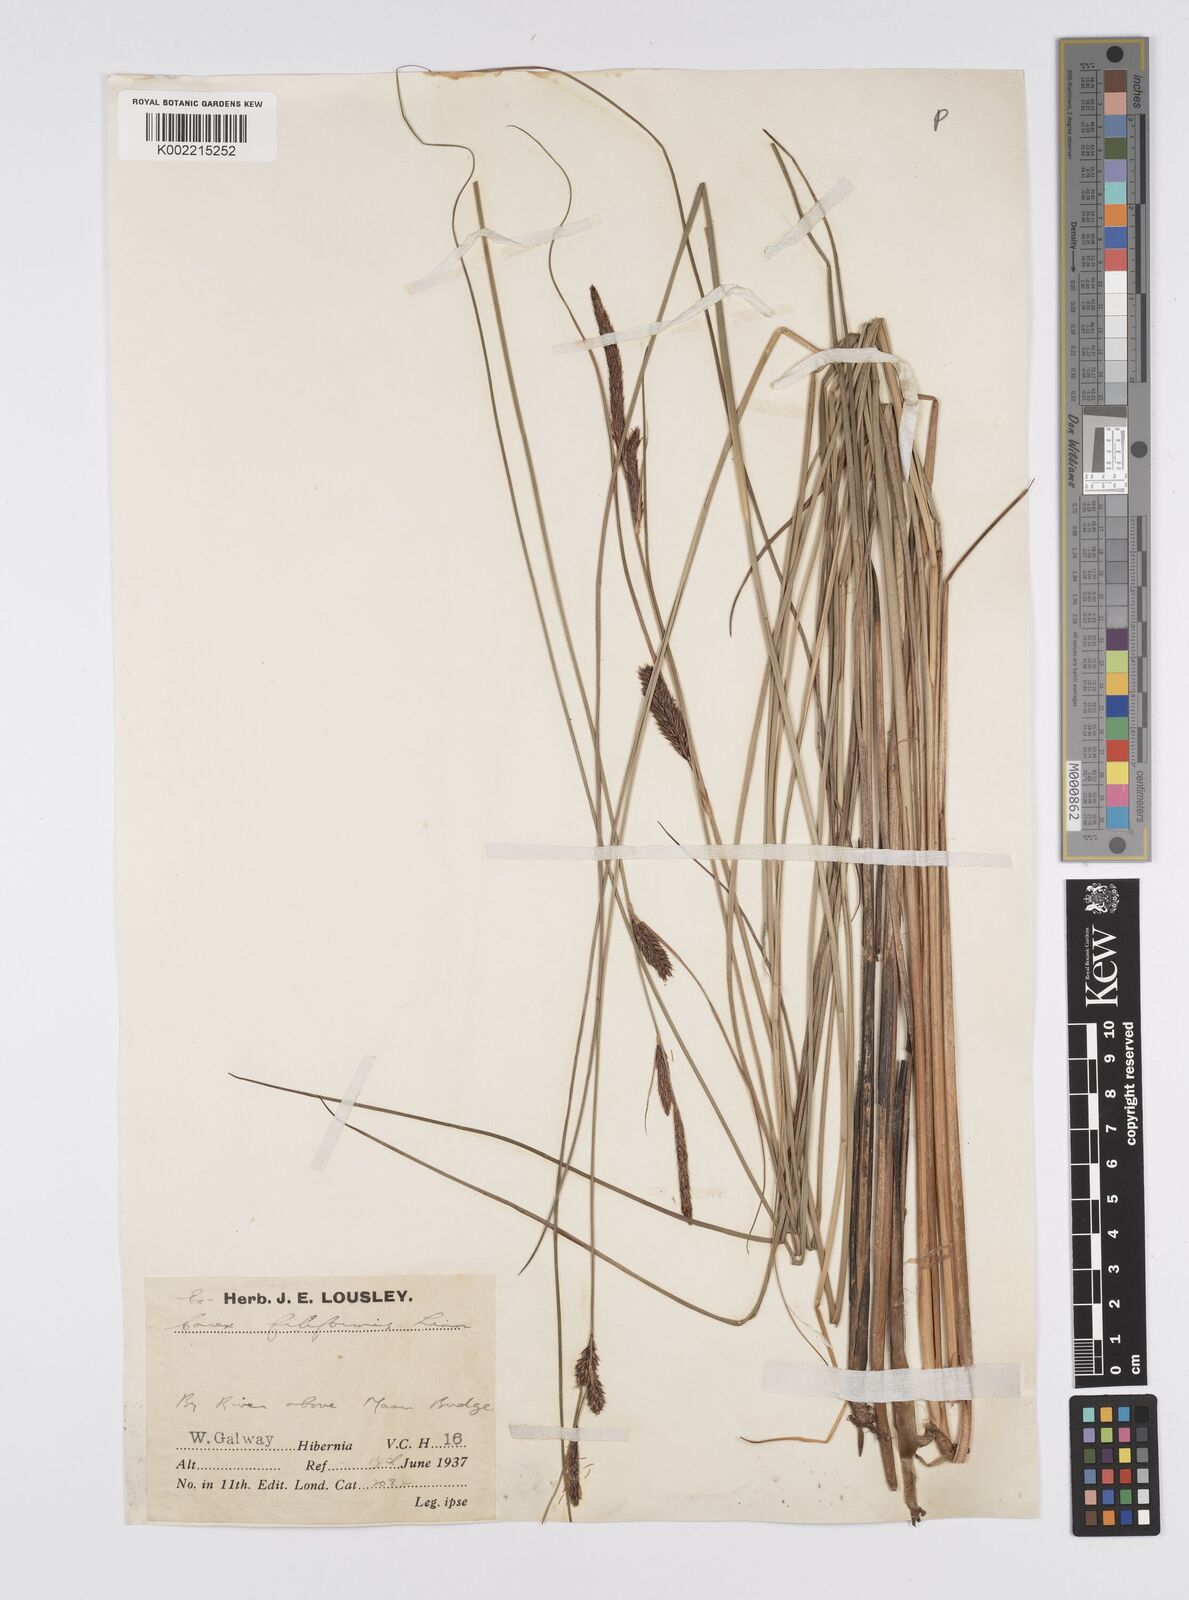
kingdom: Plantae
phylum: Tracheophyta
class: Liliopsida
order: Poales
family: Cyperaceae
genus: Carex
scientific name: Carex lasiocarpa
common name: Slender sedge
